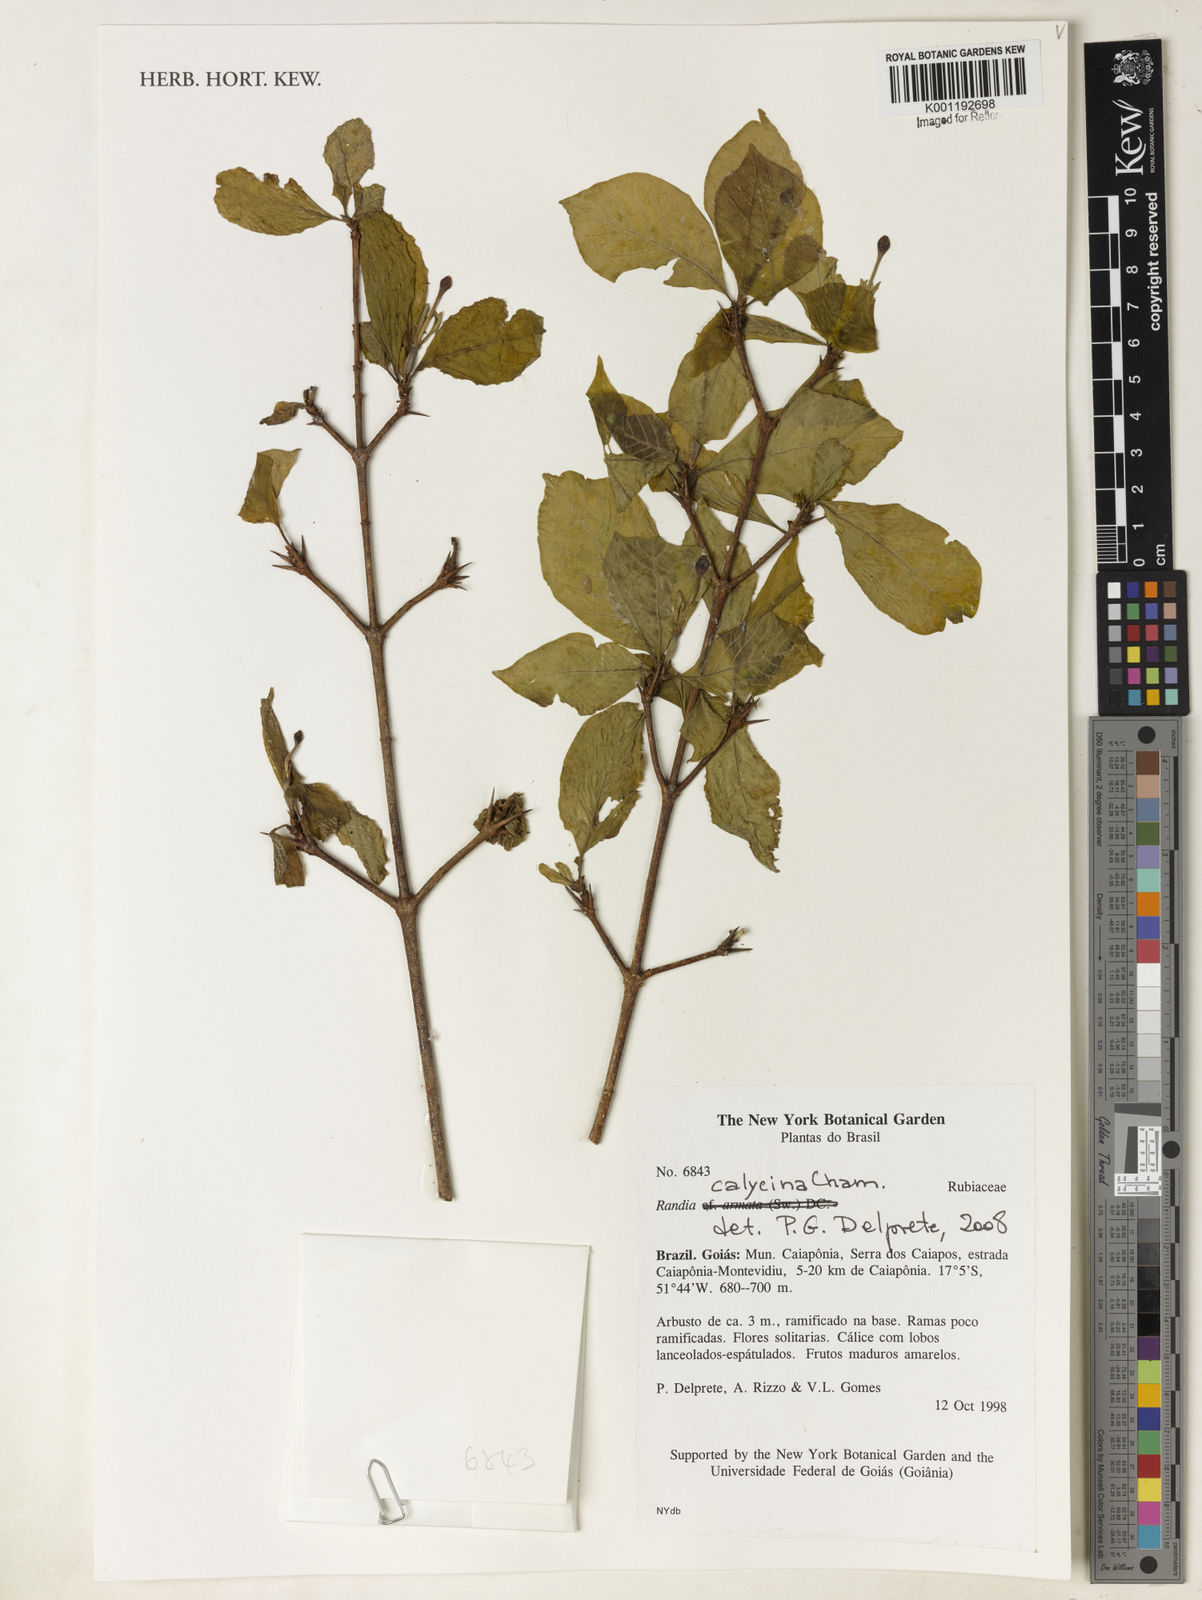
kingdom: Plantae
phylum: Tracheophyta
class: Magnoliopsida
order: Gentianales
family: Rubiaceae
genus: Randia
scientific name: Randia calycina
